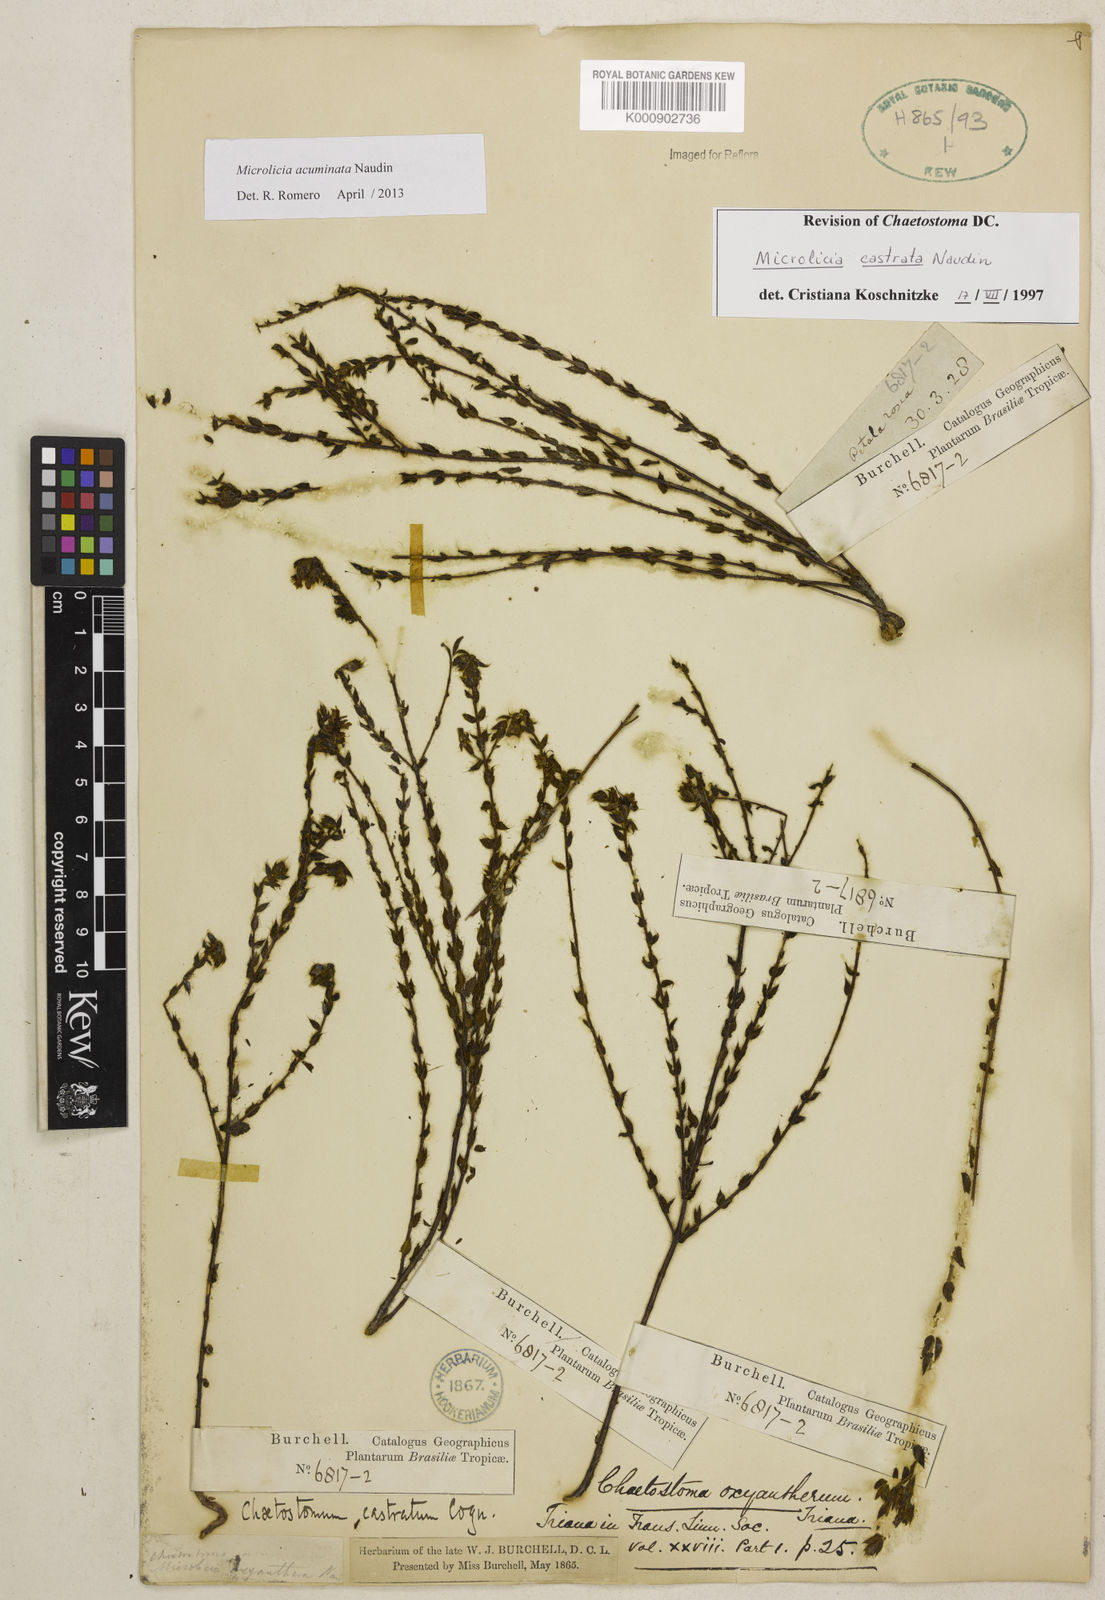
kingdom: Plantae
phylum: Tracheophyta
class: Magnoliopsida
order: Myrtales
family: Melastomataceae
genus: Microlicia
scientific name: Microlicia
